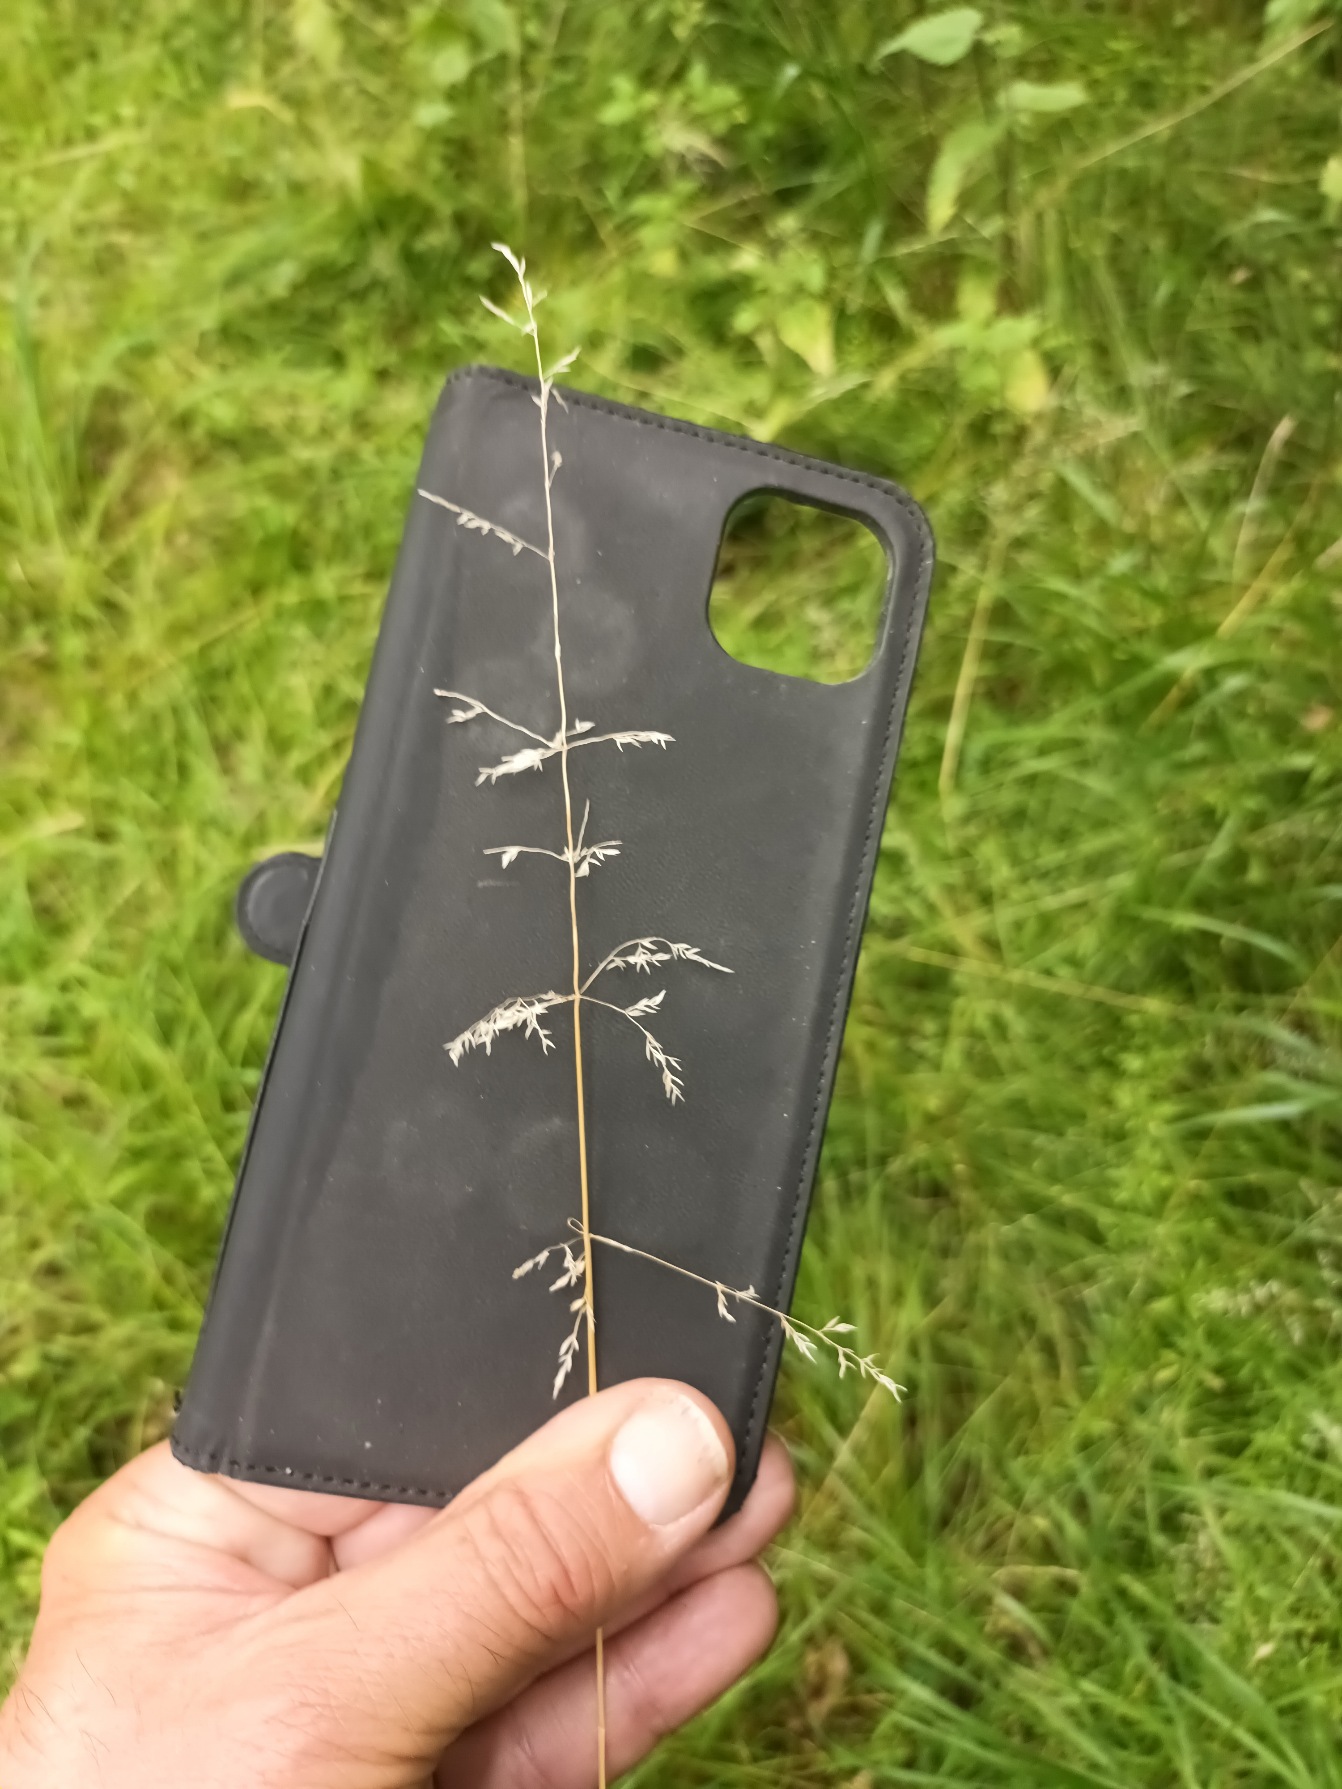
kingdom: Plantae
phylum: Tracheophyta
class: Liliopsida
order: Poales
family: Poaceae
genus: Poa
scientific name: Poa trivialis
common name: Almindelig rapgræs
